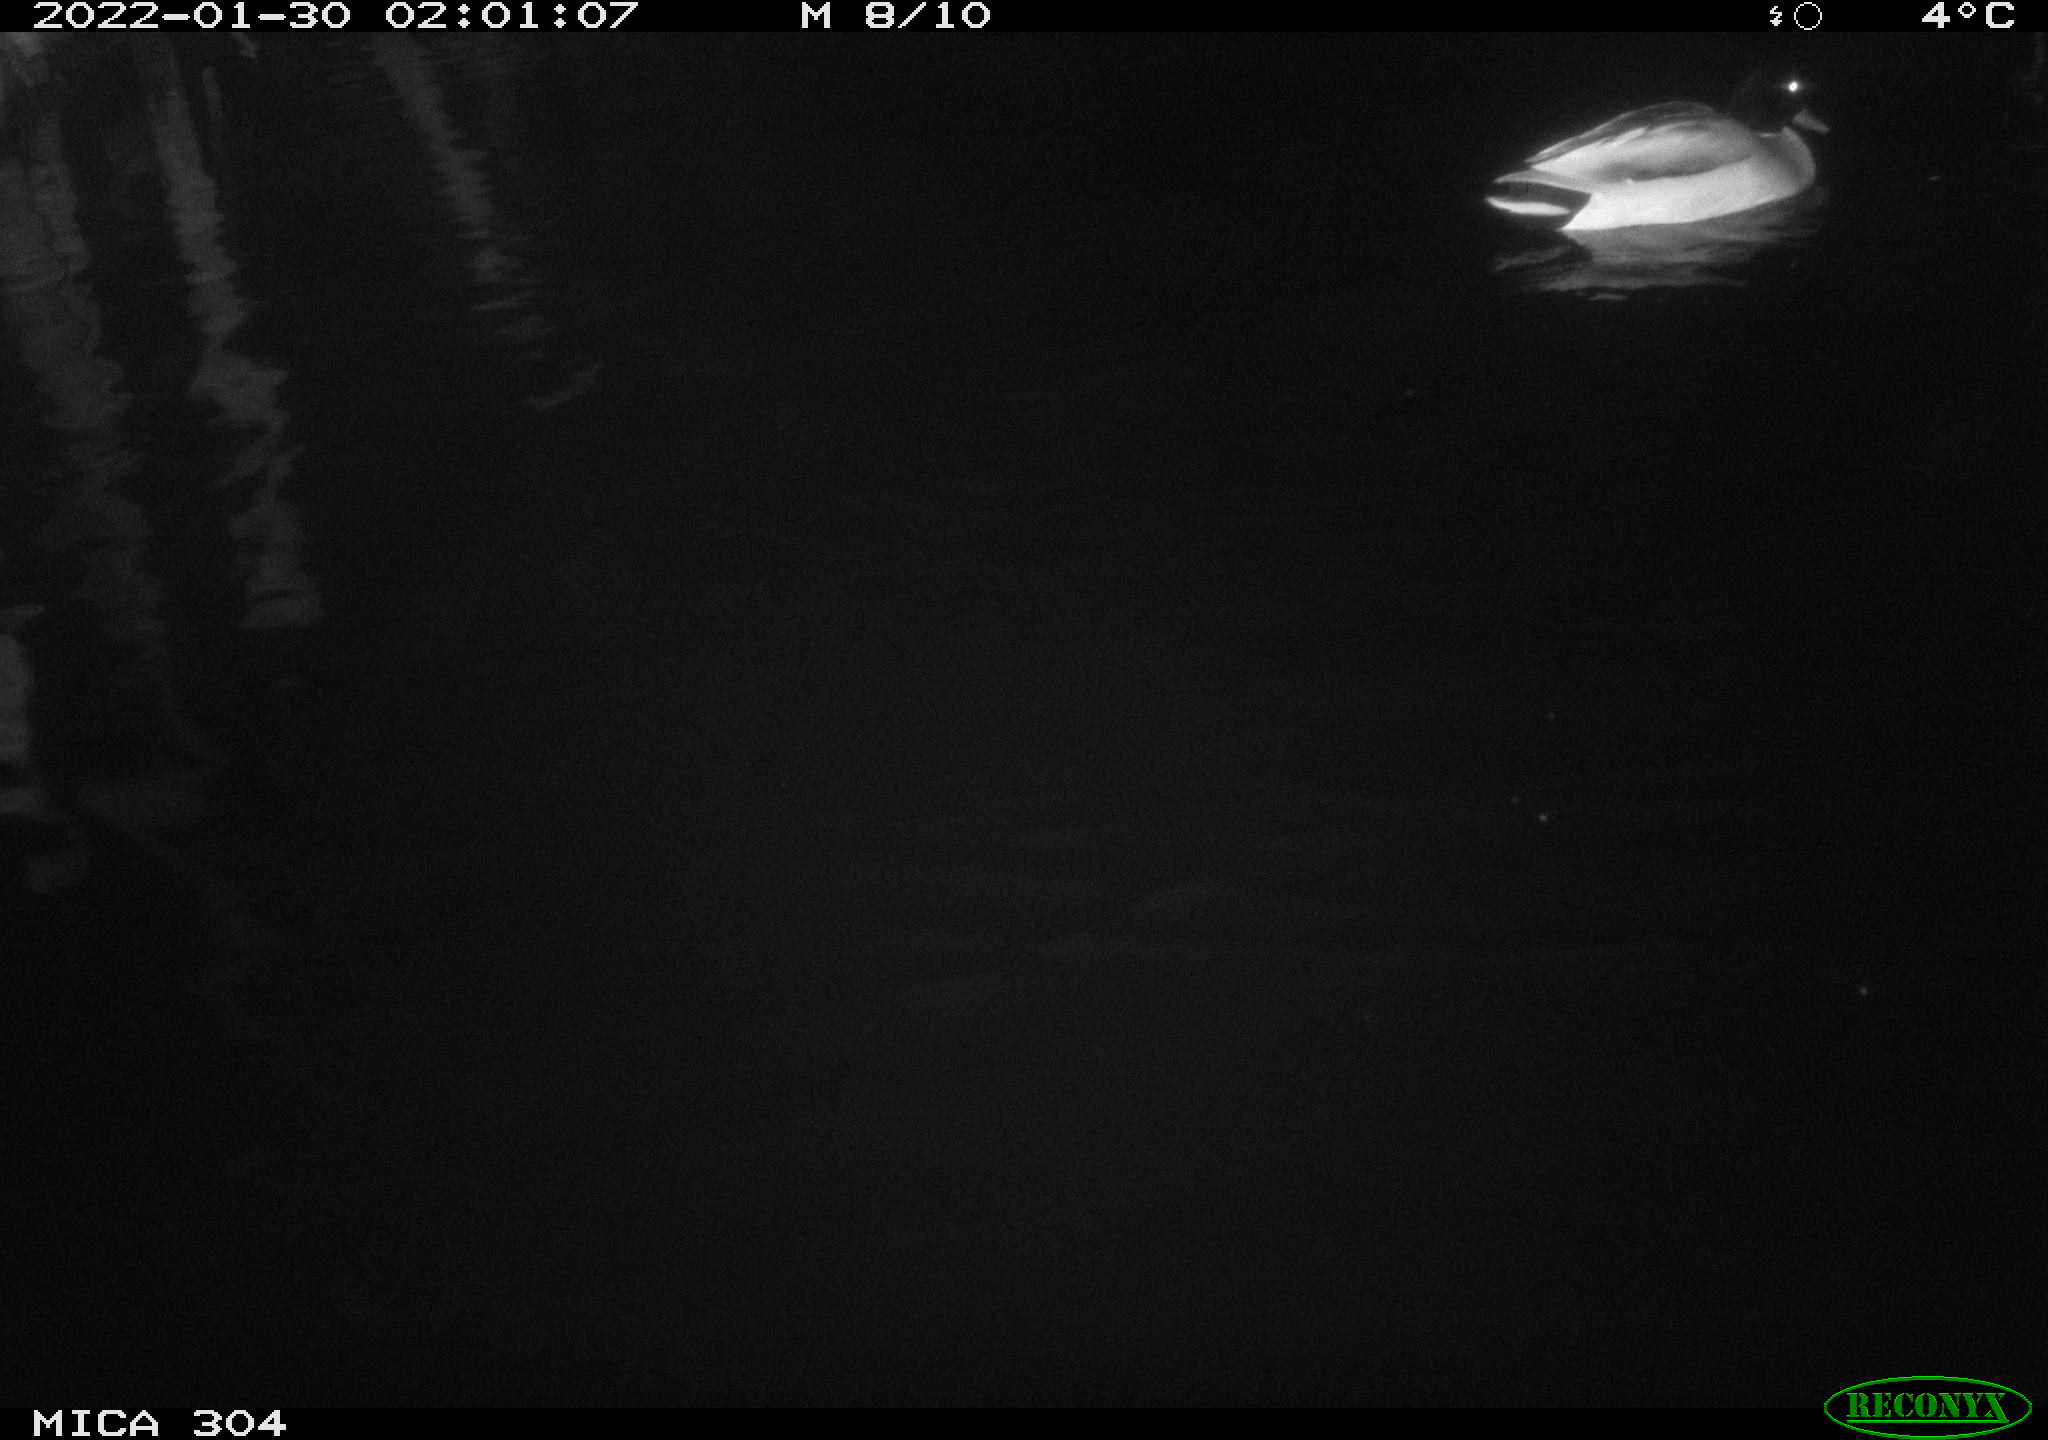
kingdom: Animalia
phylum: Chordata
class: Aves
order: Anseriformes
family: Anatidae
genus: Anas
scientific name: Anas
